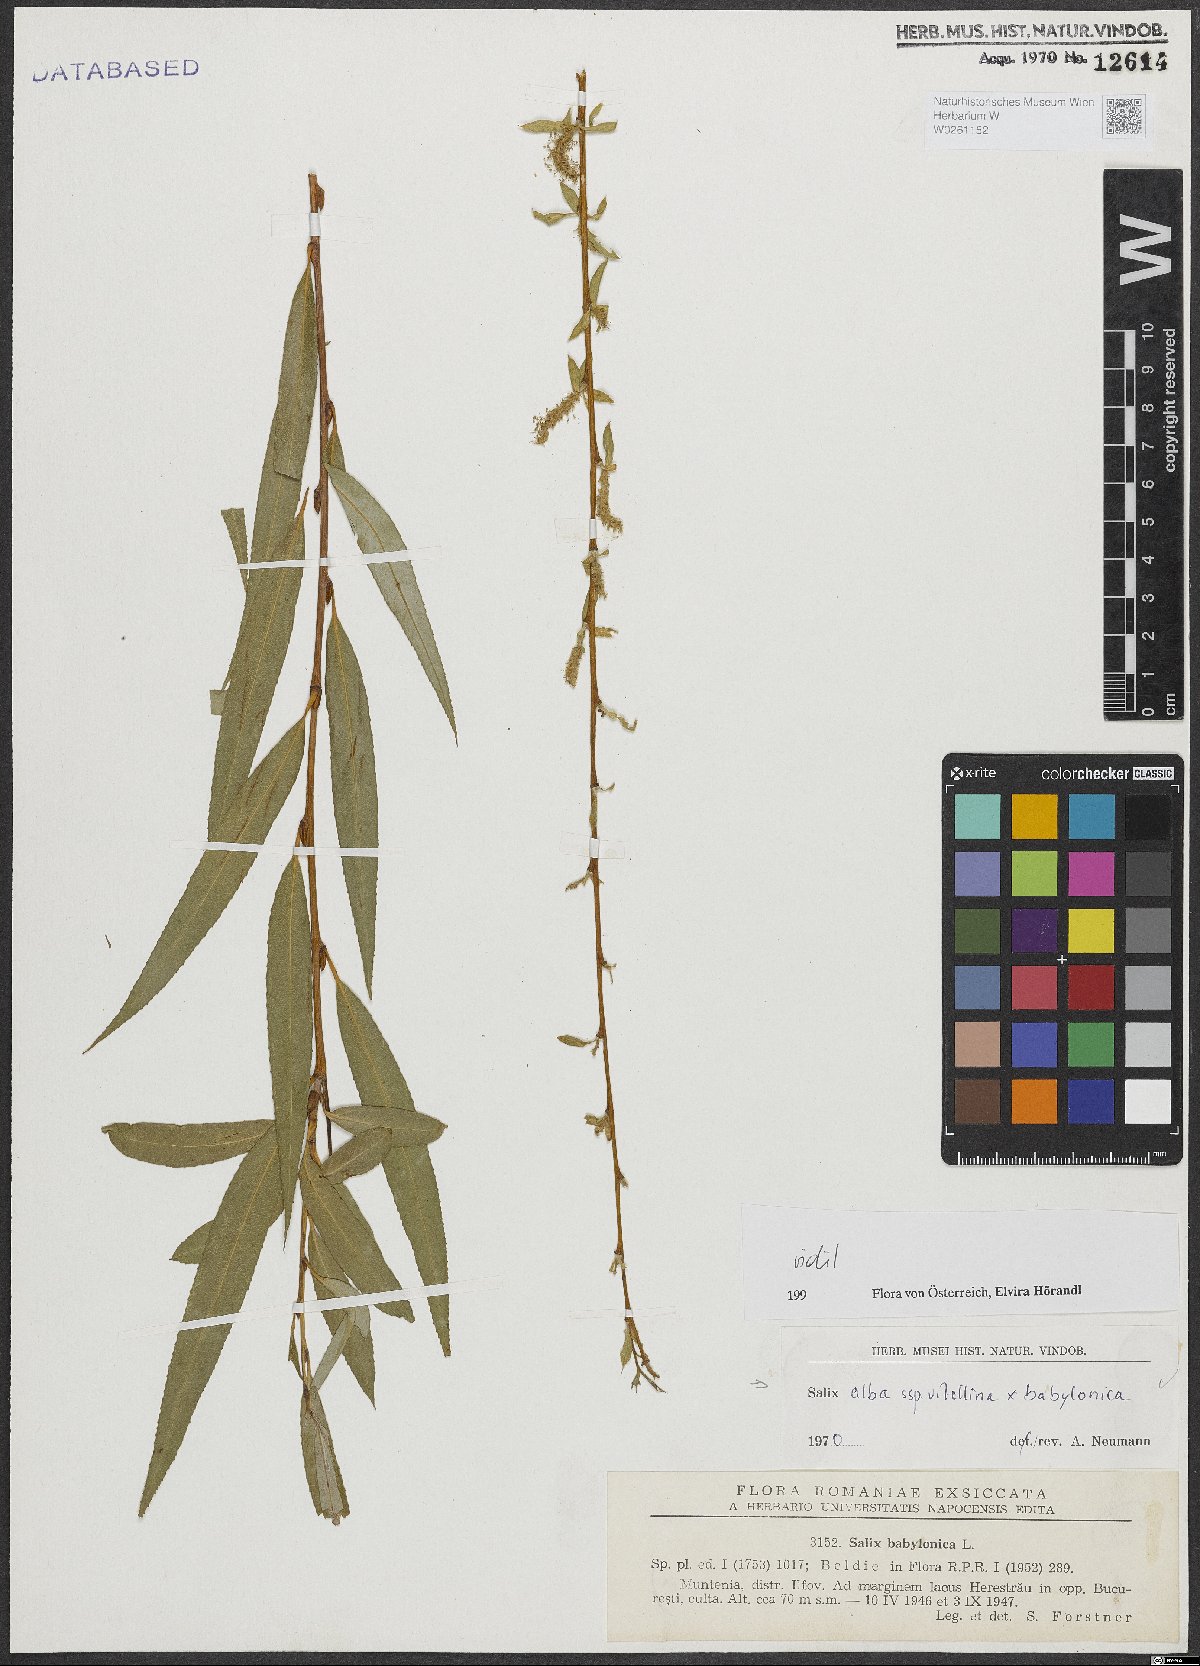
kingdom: Plantae
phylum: Tracheophyta
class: Magnoliopsida
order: Malpighiales
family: Salicaceae
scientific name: Salicaceae
